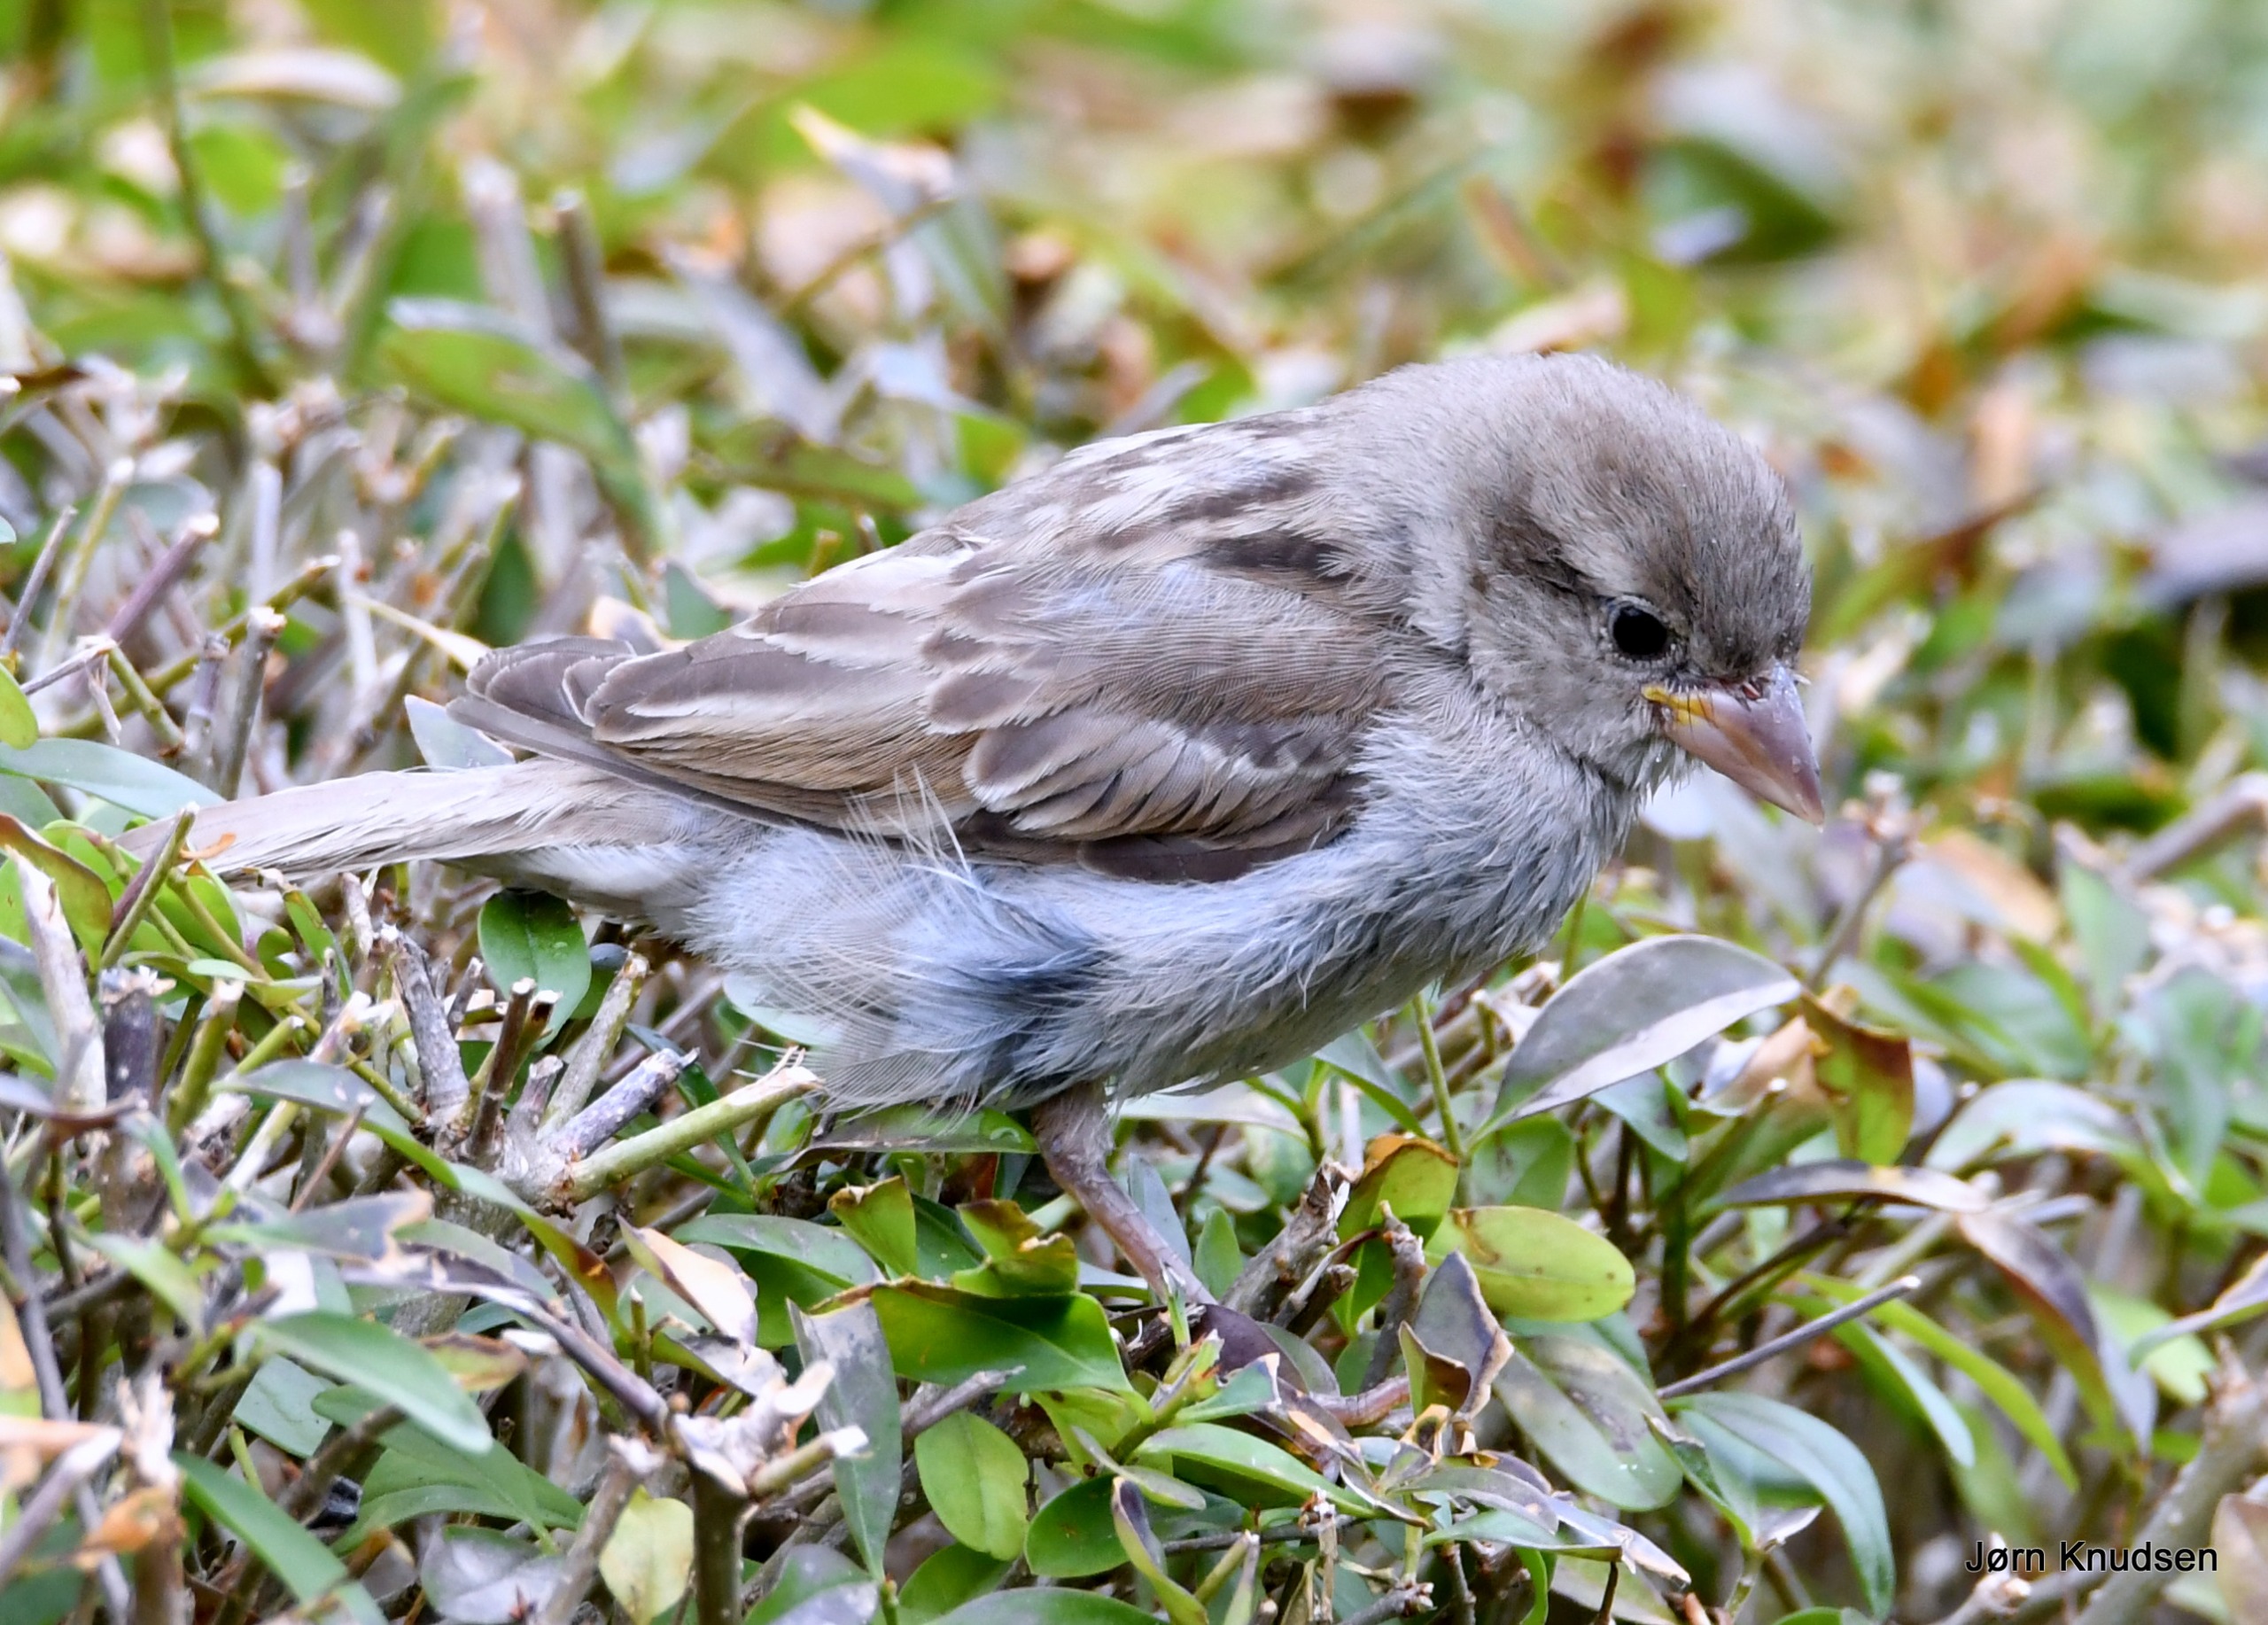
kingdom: Animalia
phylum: Chordata
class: Aves
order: Passeriformes
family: Passeridae
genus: Passer
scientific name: Passer domesticus
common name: Gråspurv
